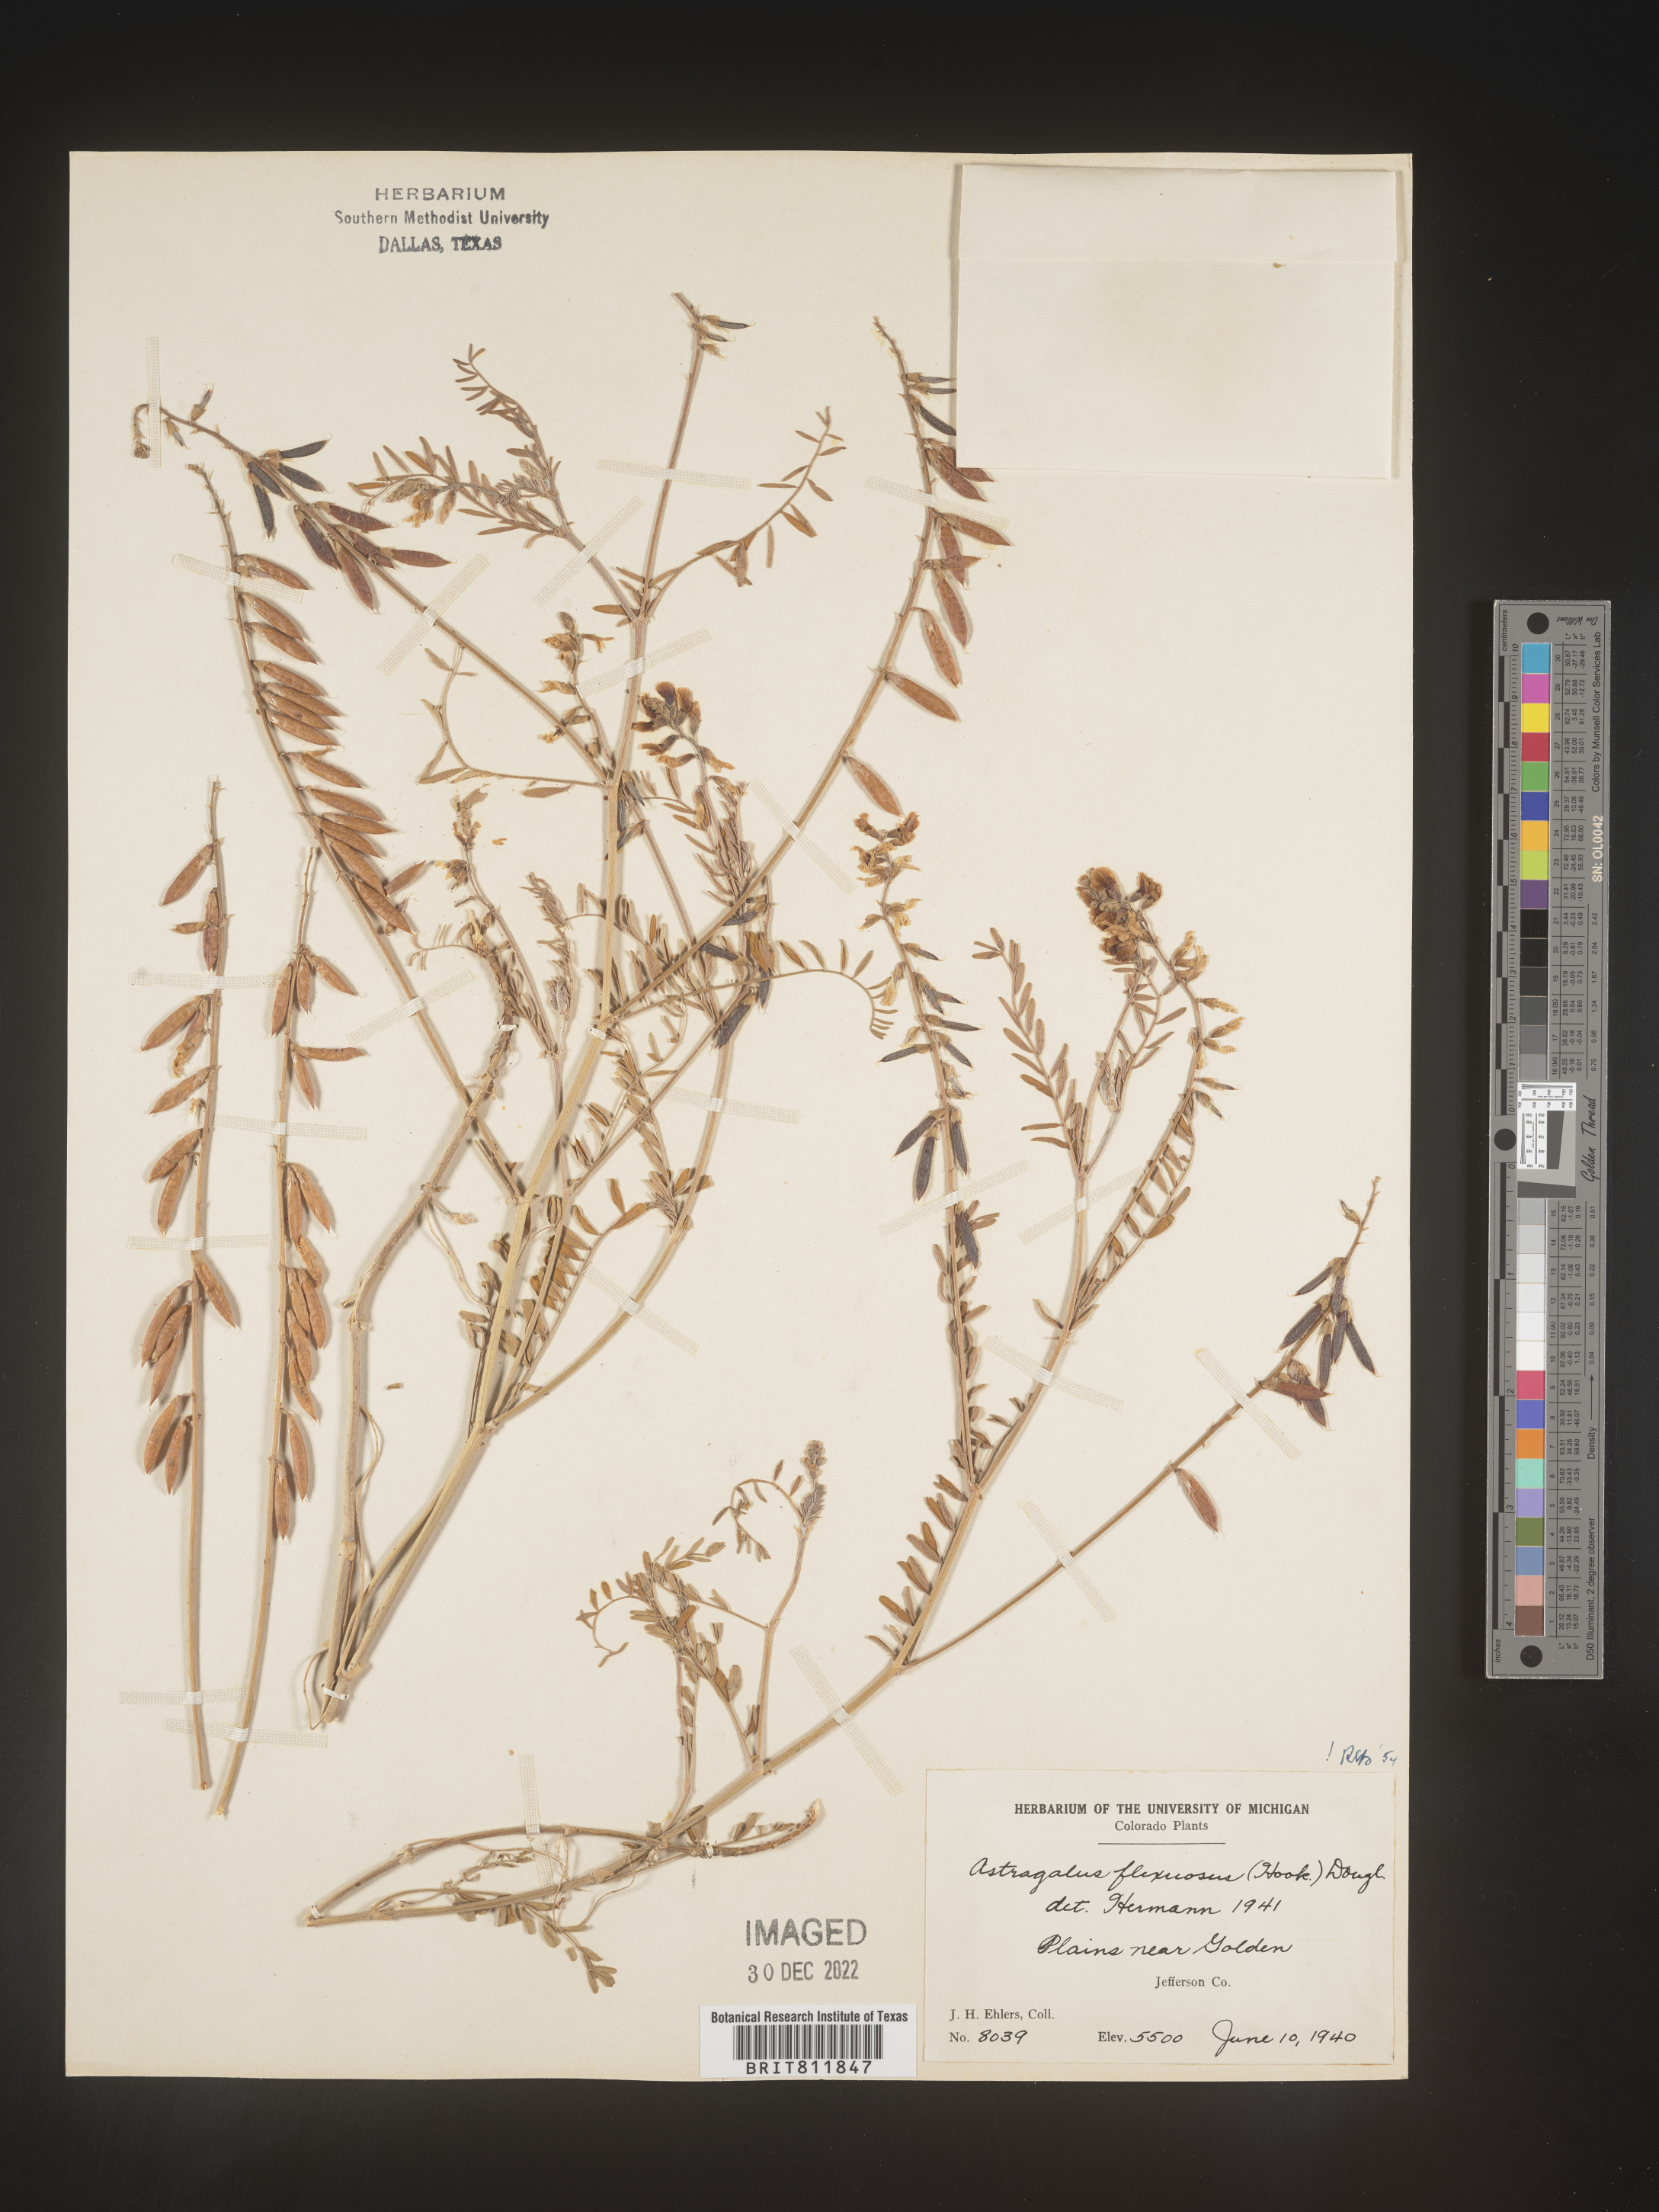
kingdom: Plantae
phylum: Tracheophyta
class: Magnoliopsida
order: Fabales
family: Fabaceae
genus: Astragalus
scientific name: Astragalus flexuosus
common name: Pliant milk-vetch
